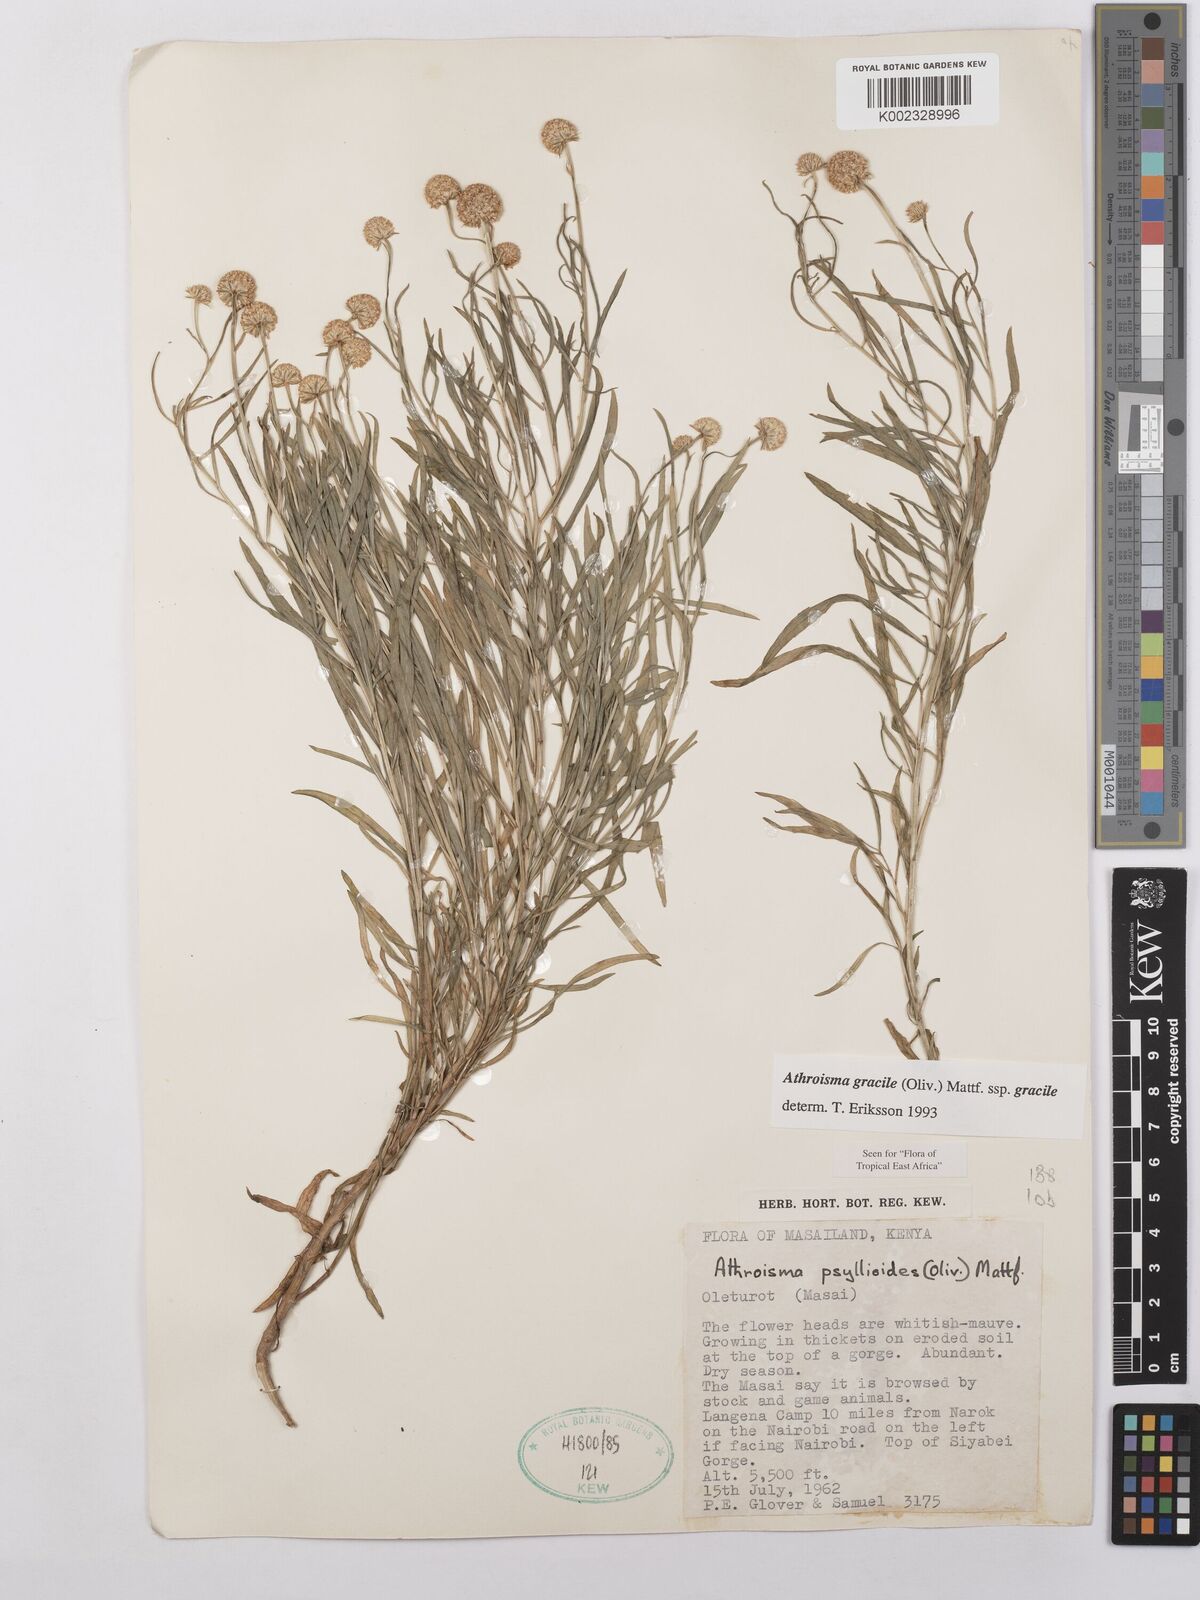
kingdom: Plantae
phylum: Tracheophyta
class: Magnoliopsida
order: Asterales
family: Asteraceae
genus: Athroisma
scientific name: Athroisma gracile
